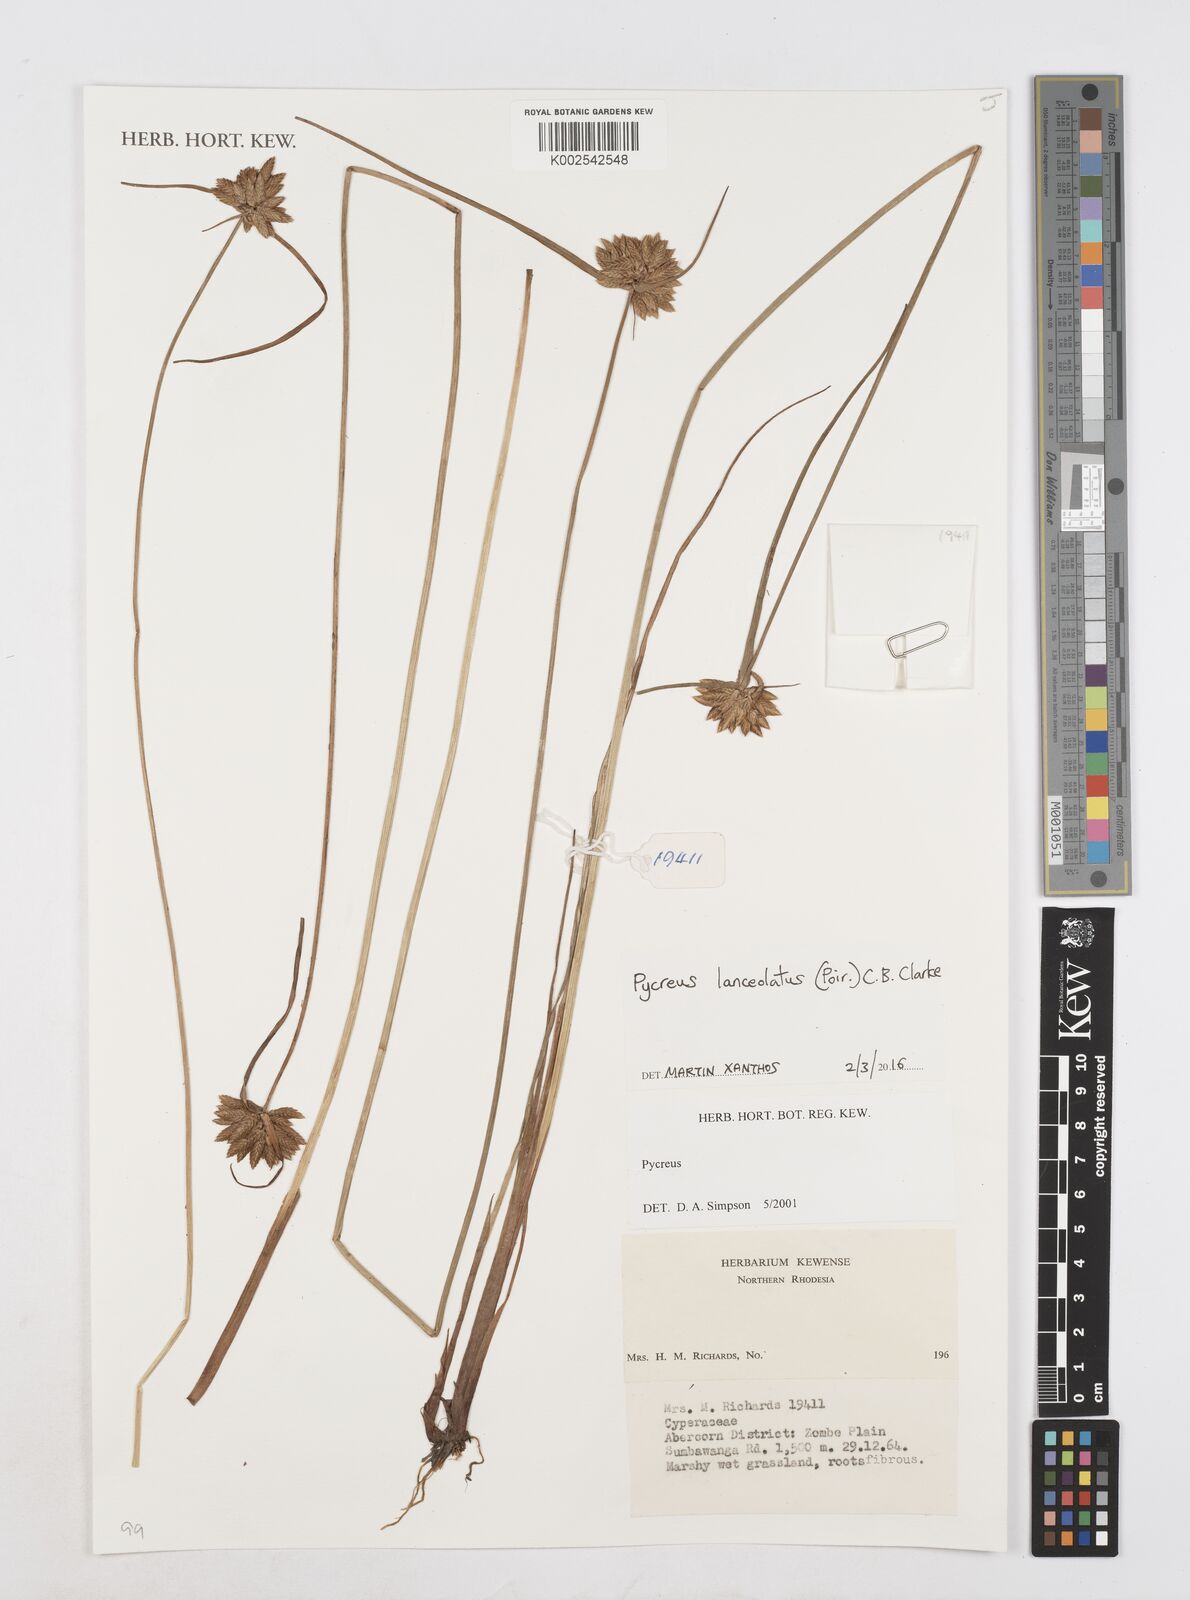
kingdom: Plantae
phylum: Tracheophyta
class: Liliopsida
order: Poales
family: Cyperaceae
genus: Cyperus
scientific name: Cyperus
